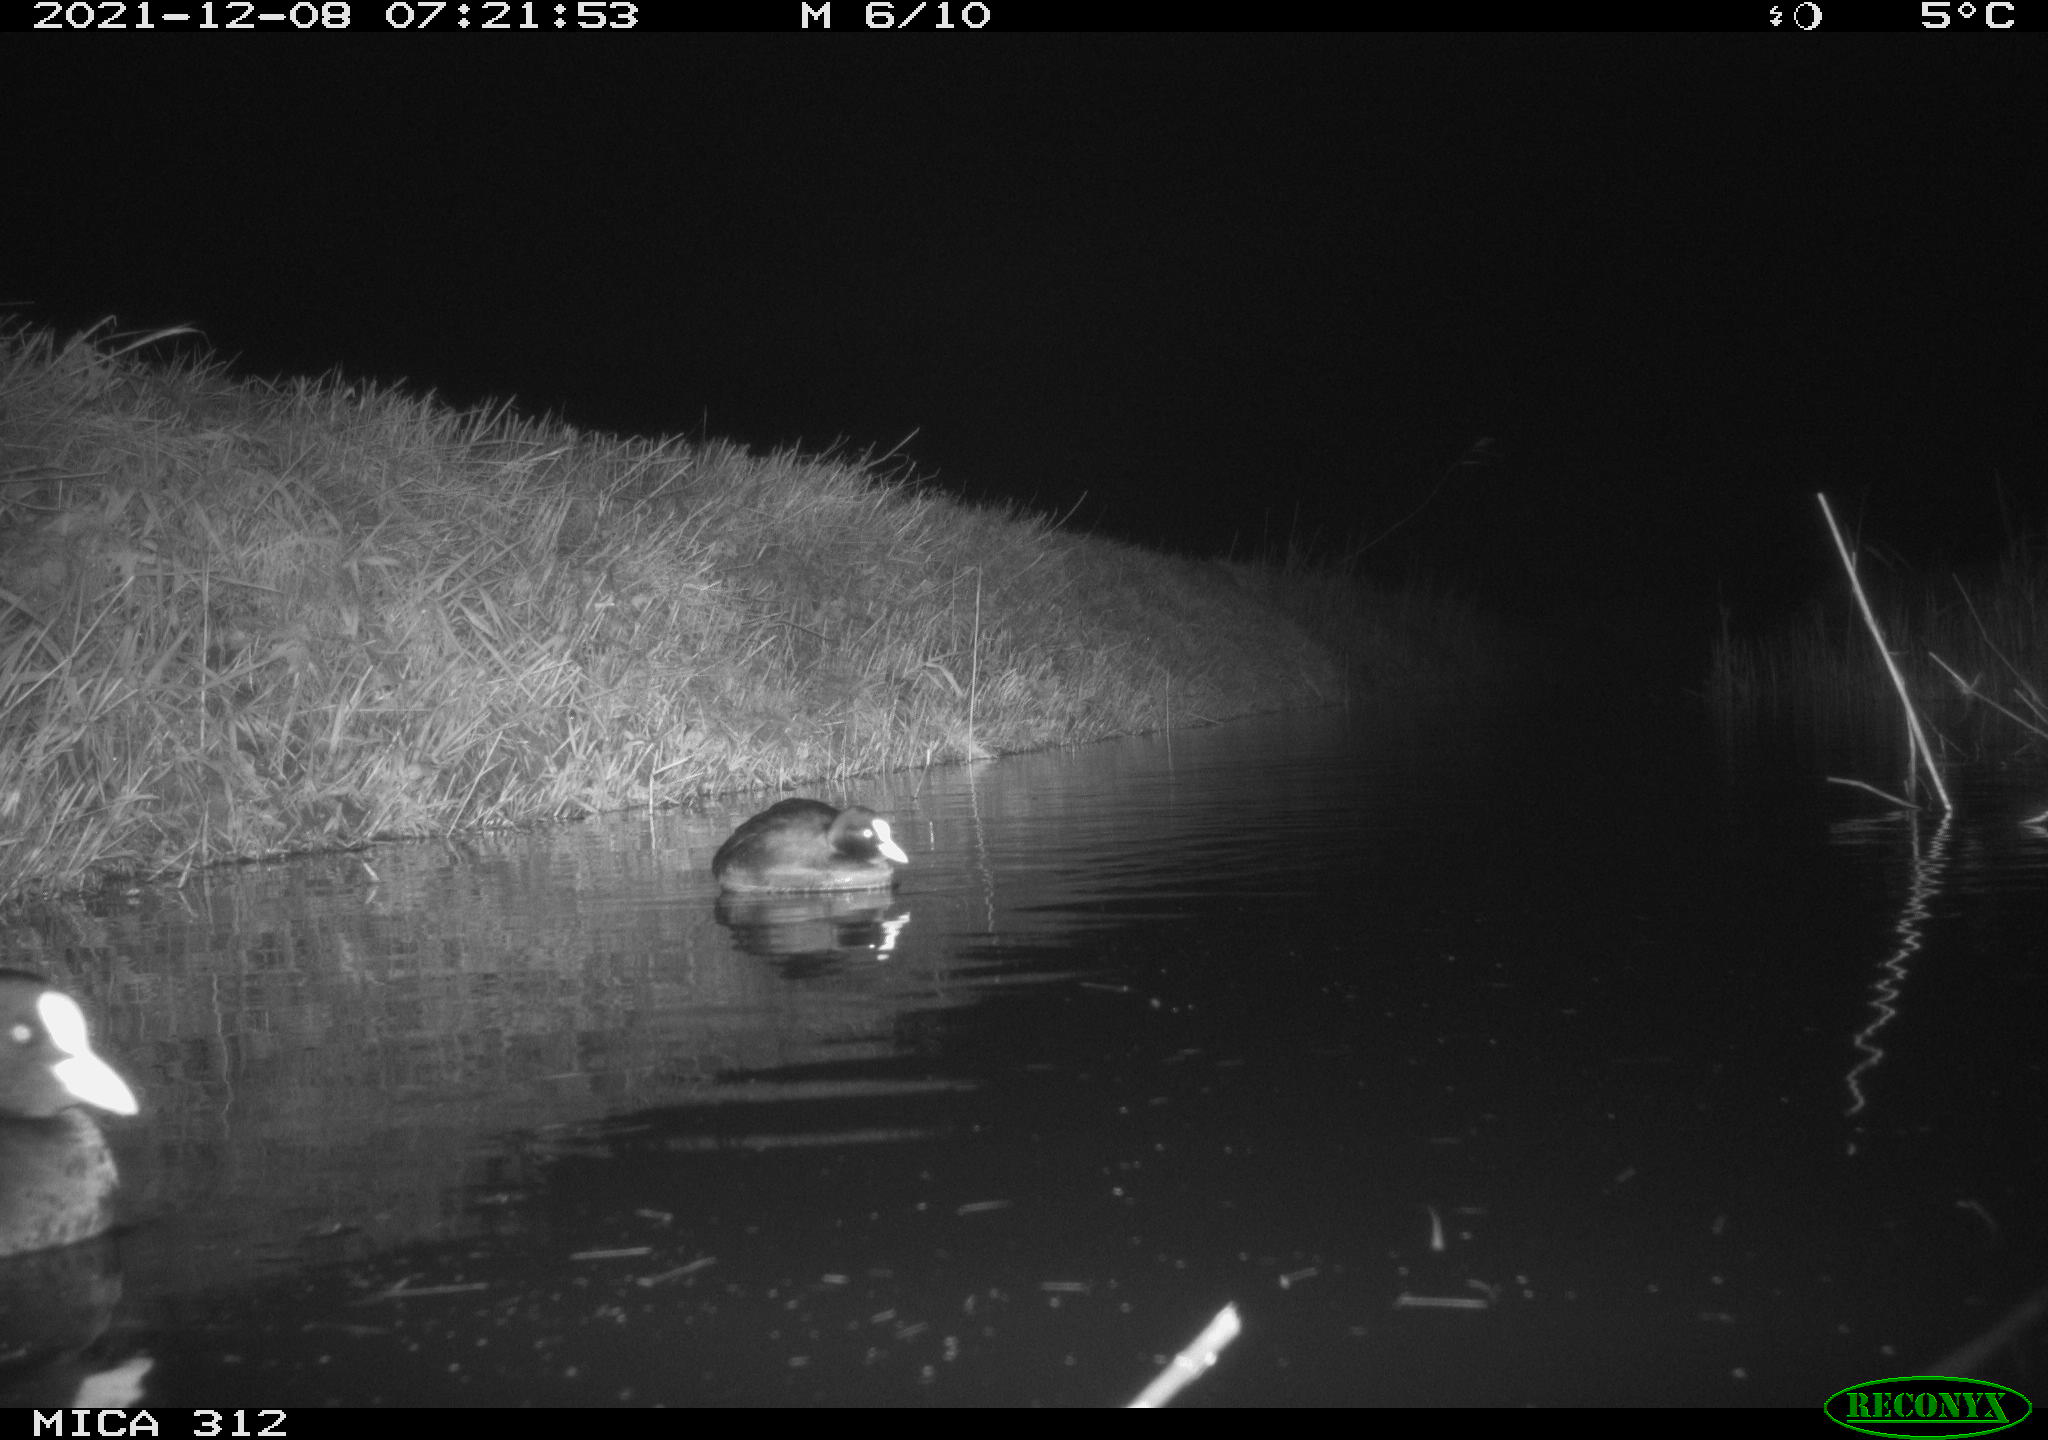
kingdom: Animalia
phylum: Chordata
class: Aves
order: Gruiformes
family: Rallidae
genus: Gallinula
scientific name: Gallinula chloropus
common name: Common moorhen
